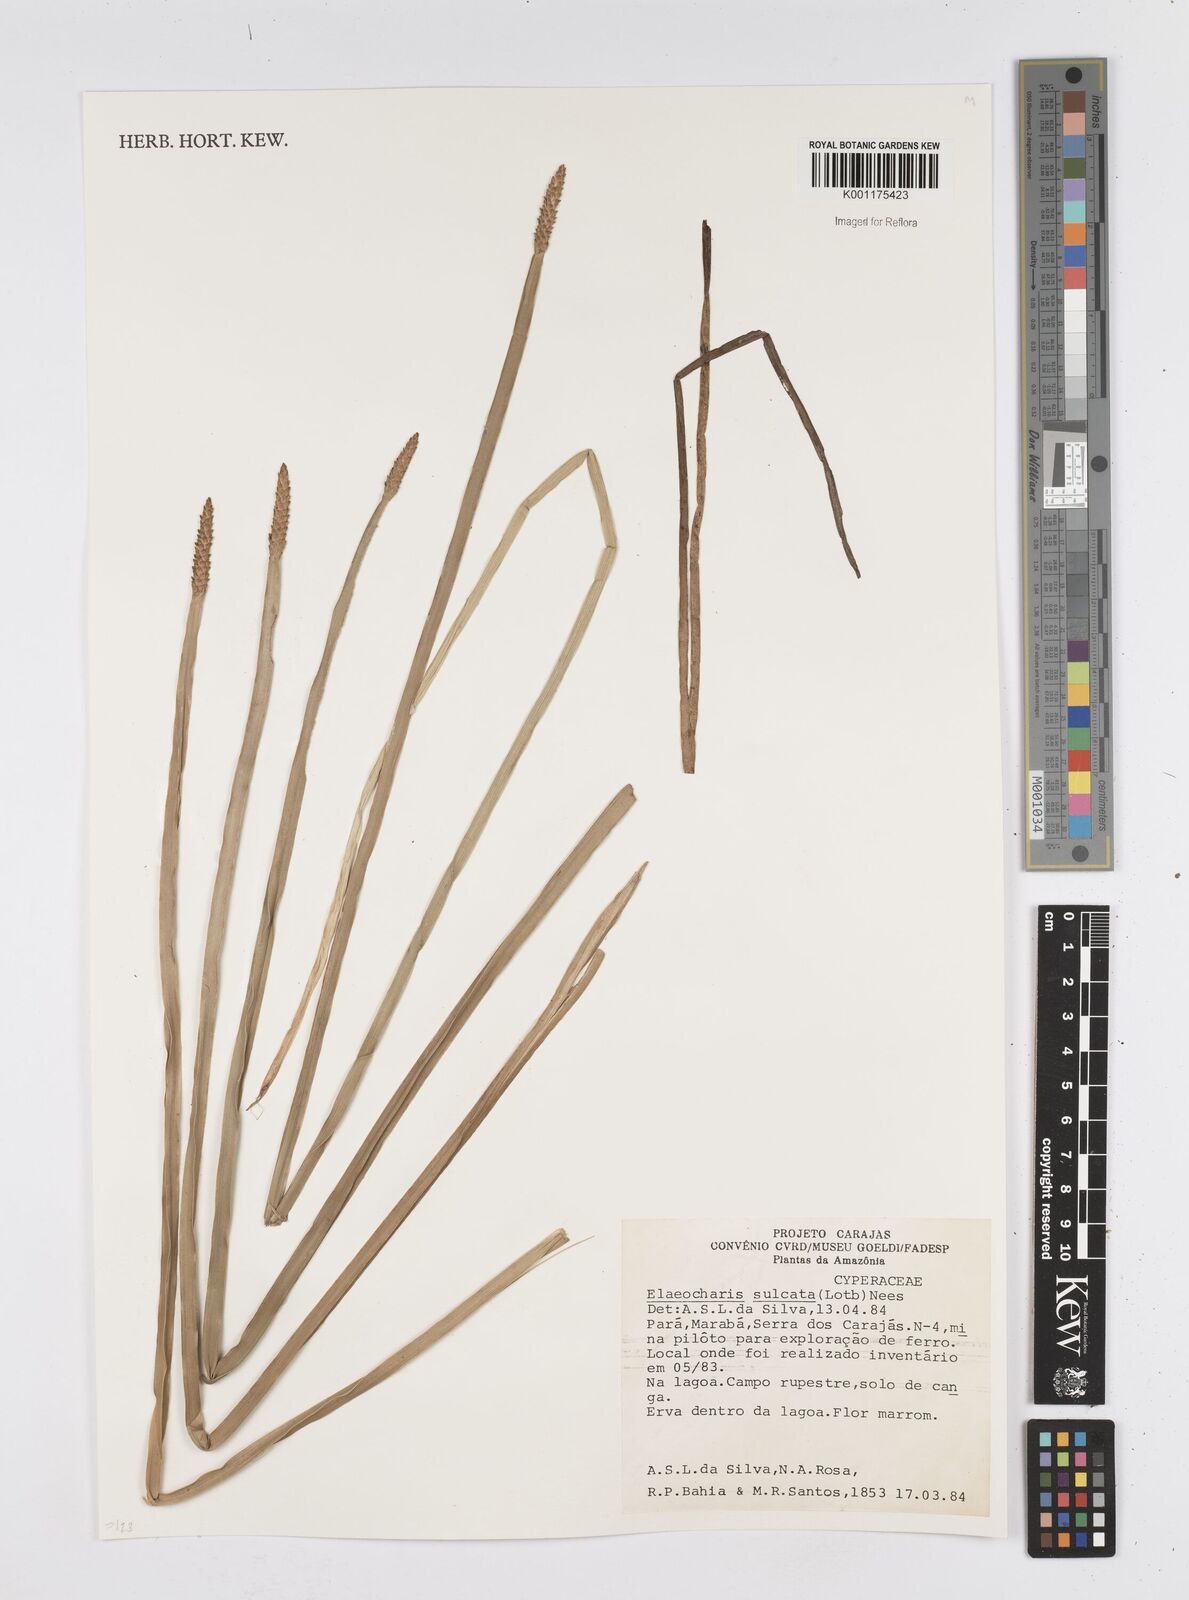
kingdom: Plantae
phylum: Tracheophyta
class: Liliopsida
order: Poales
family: Cyperaceae
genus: Eleocharis
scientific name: Eleocharis filiculmis
